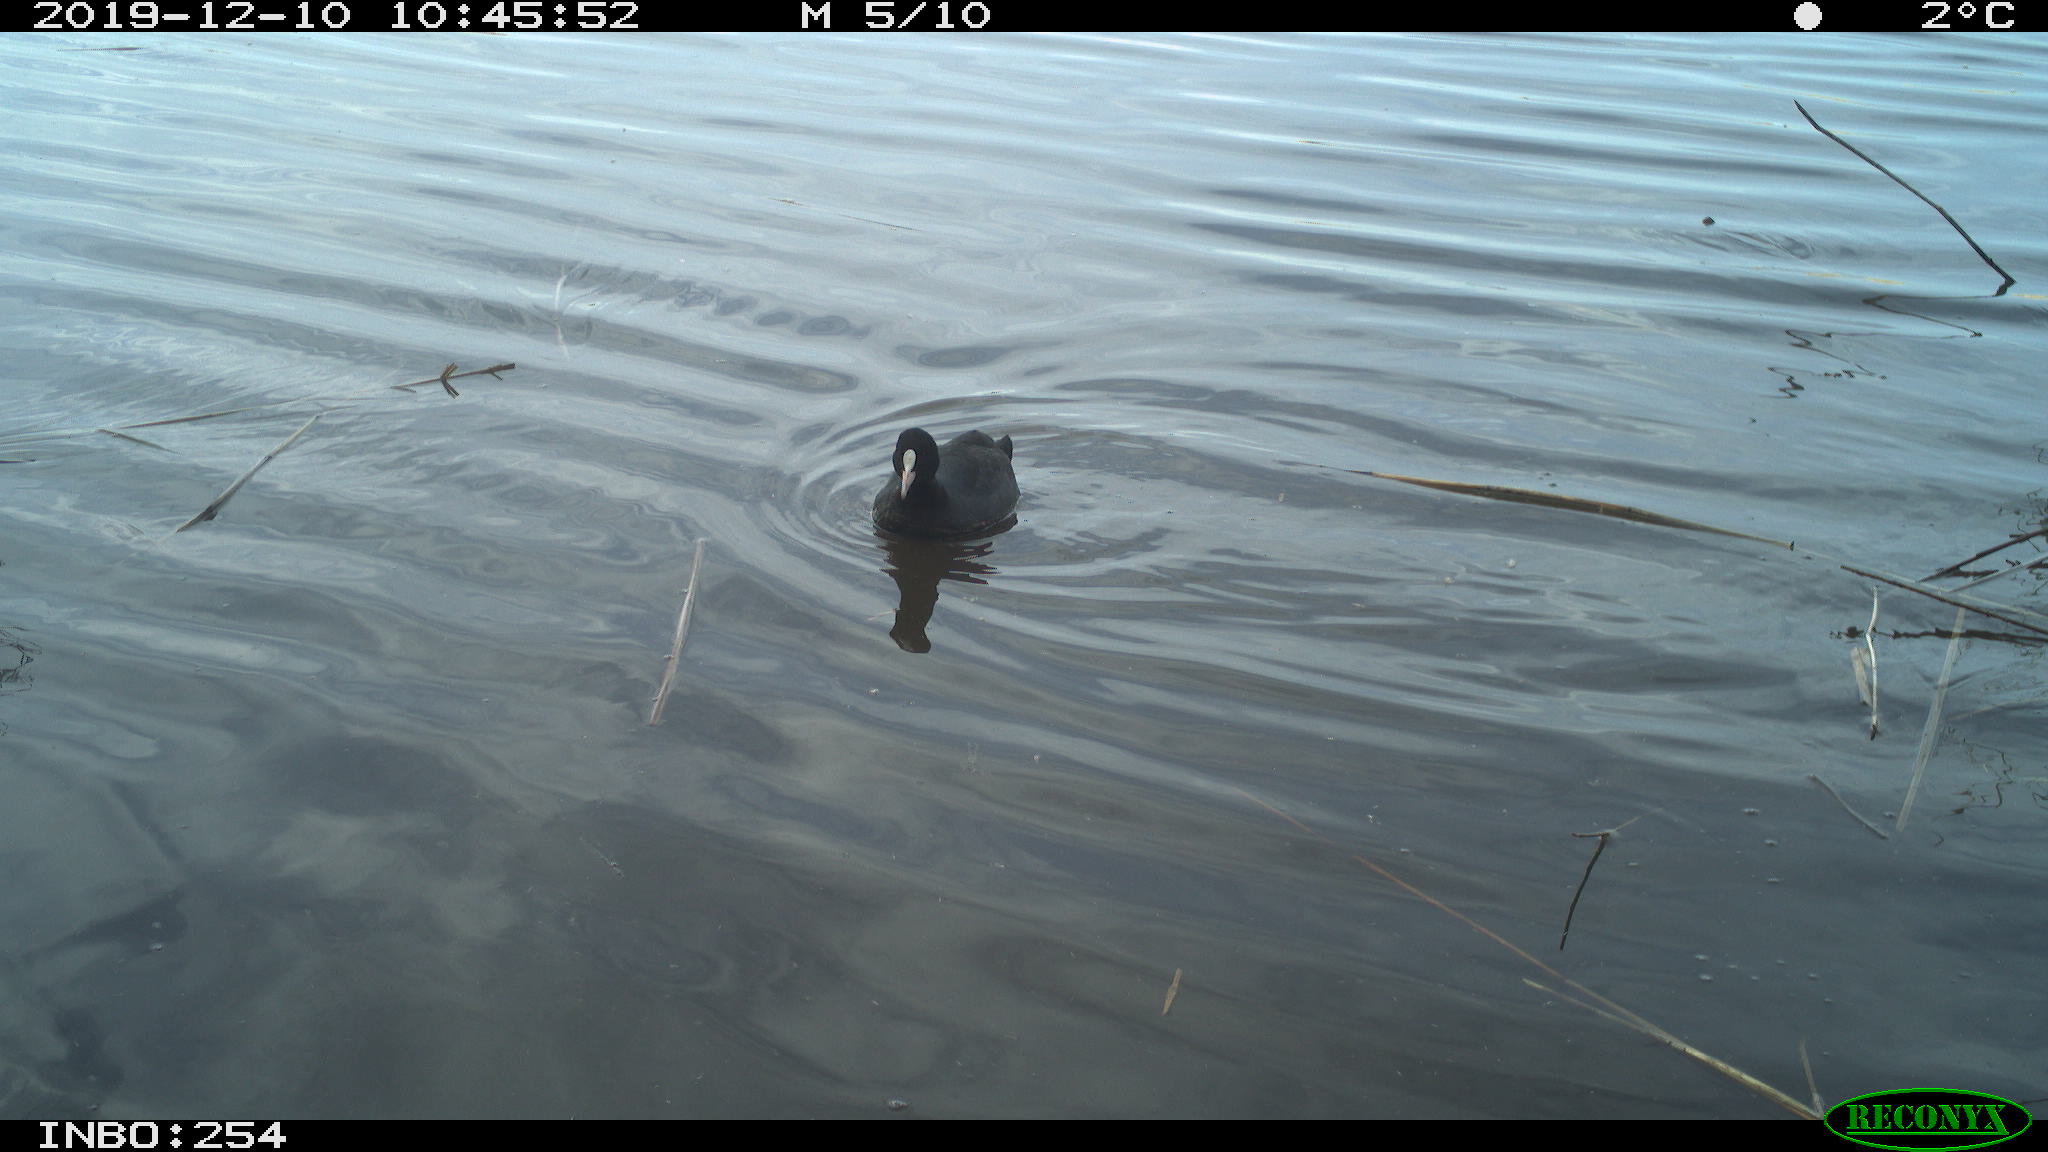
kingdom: Animalia
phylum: Chordata
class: Aves
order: Gruiformes
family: Rallidae
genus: Fulica
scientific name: Fulica atra
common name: Eurasian coot
